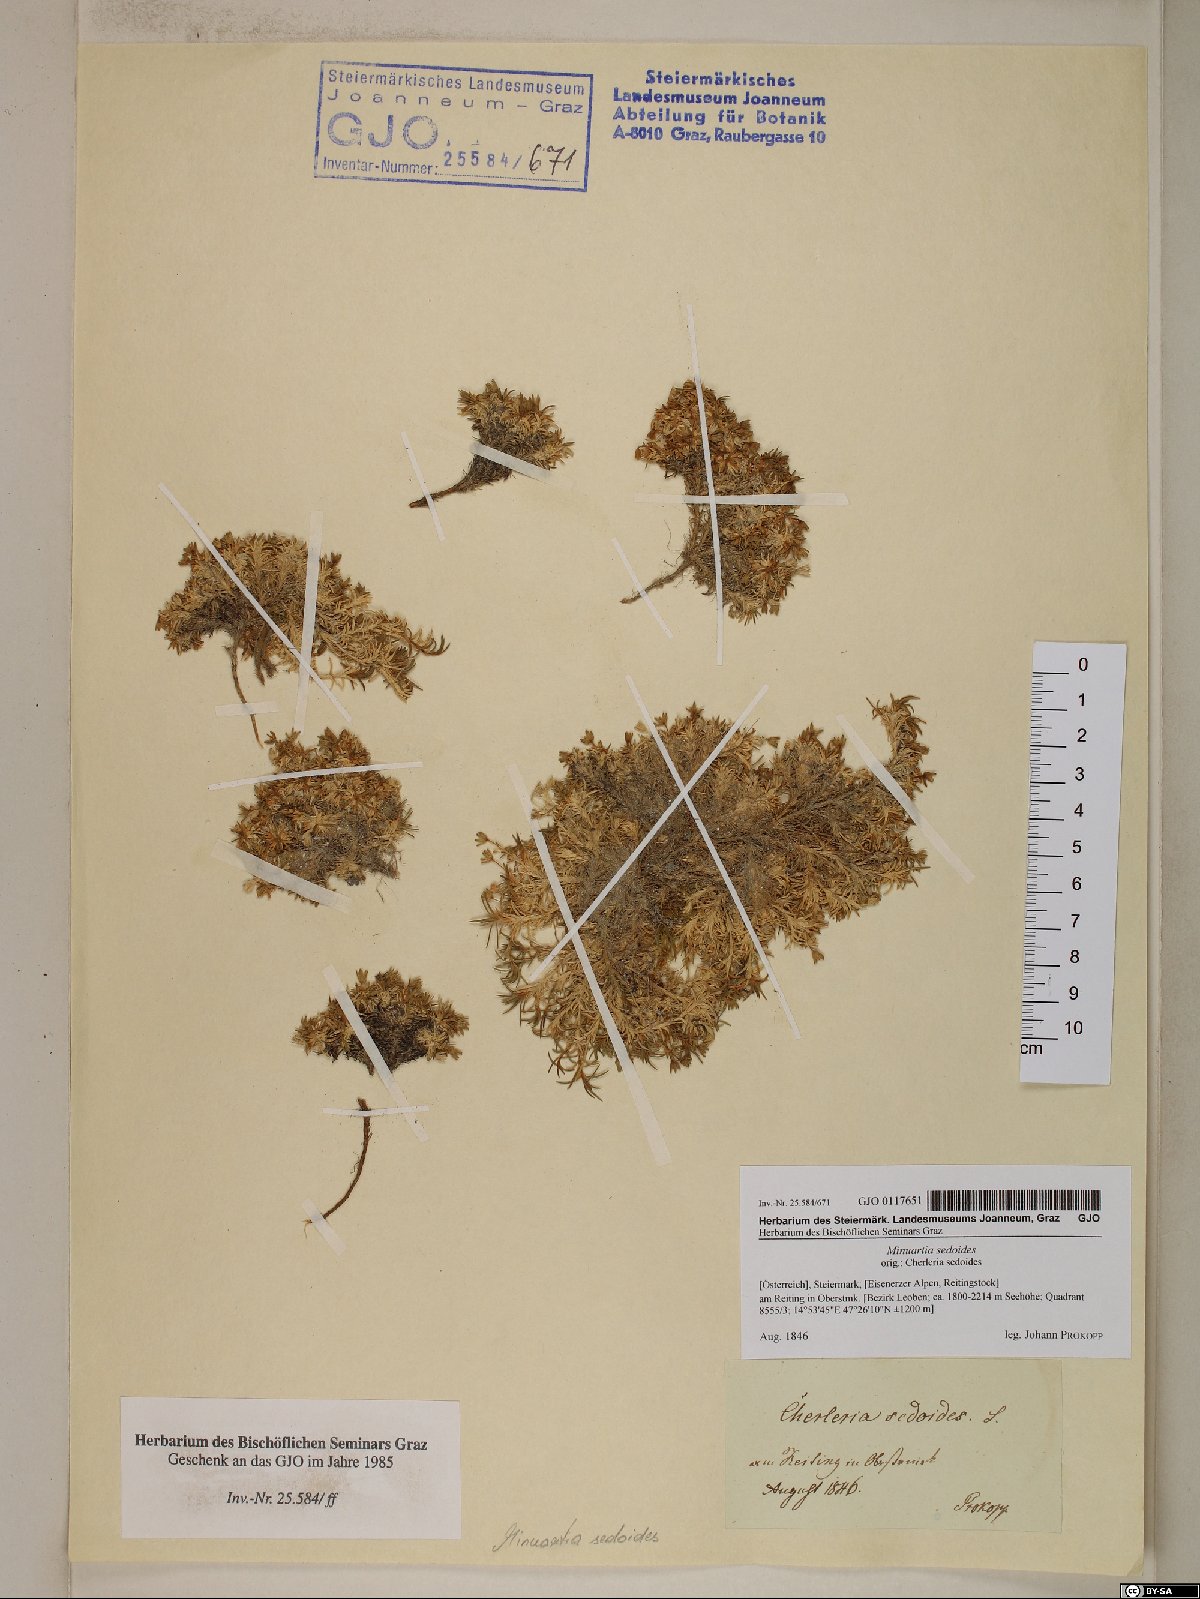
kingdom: Plantae
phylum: Tracheophyta
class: Magnoliopsida
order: Caryophyllales
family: Caryophyllaceae
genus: Cherleria
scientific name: Cherleria sedoides
